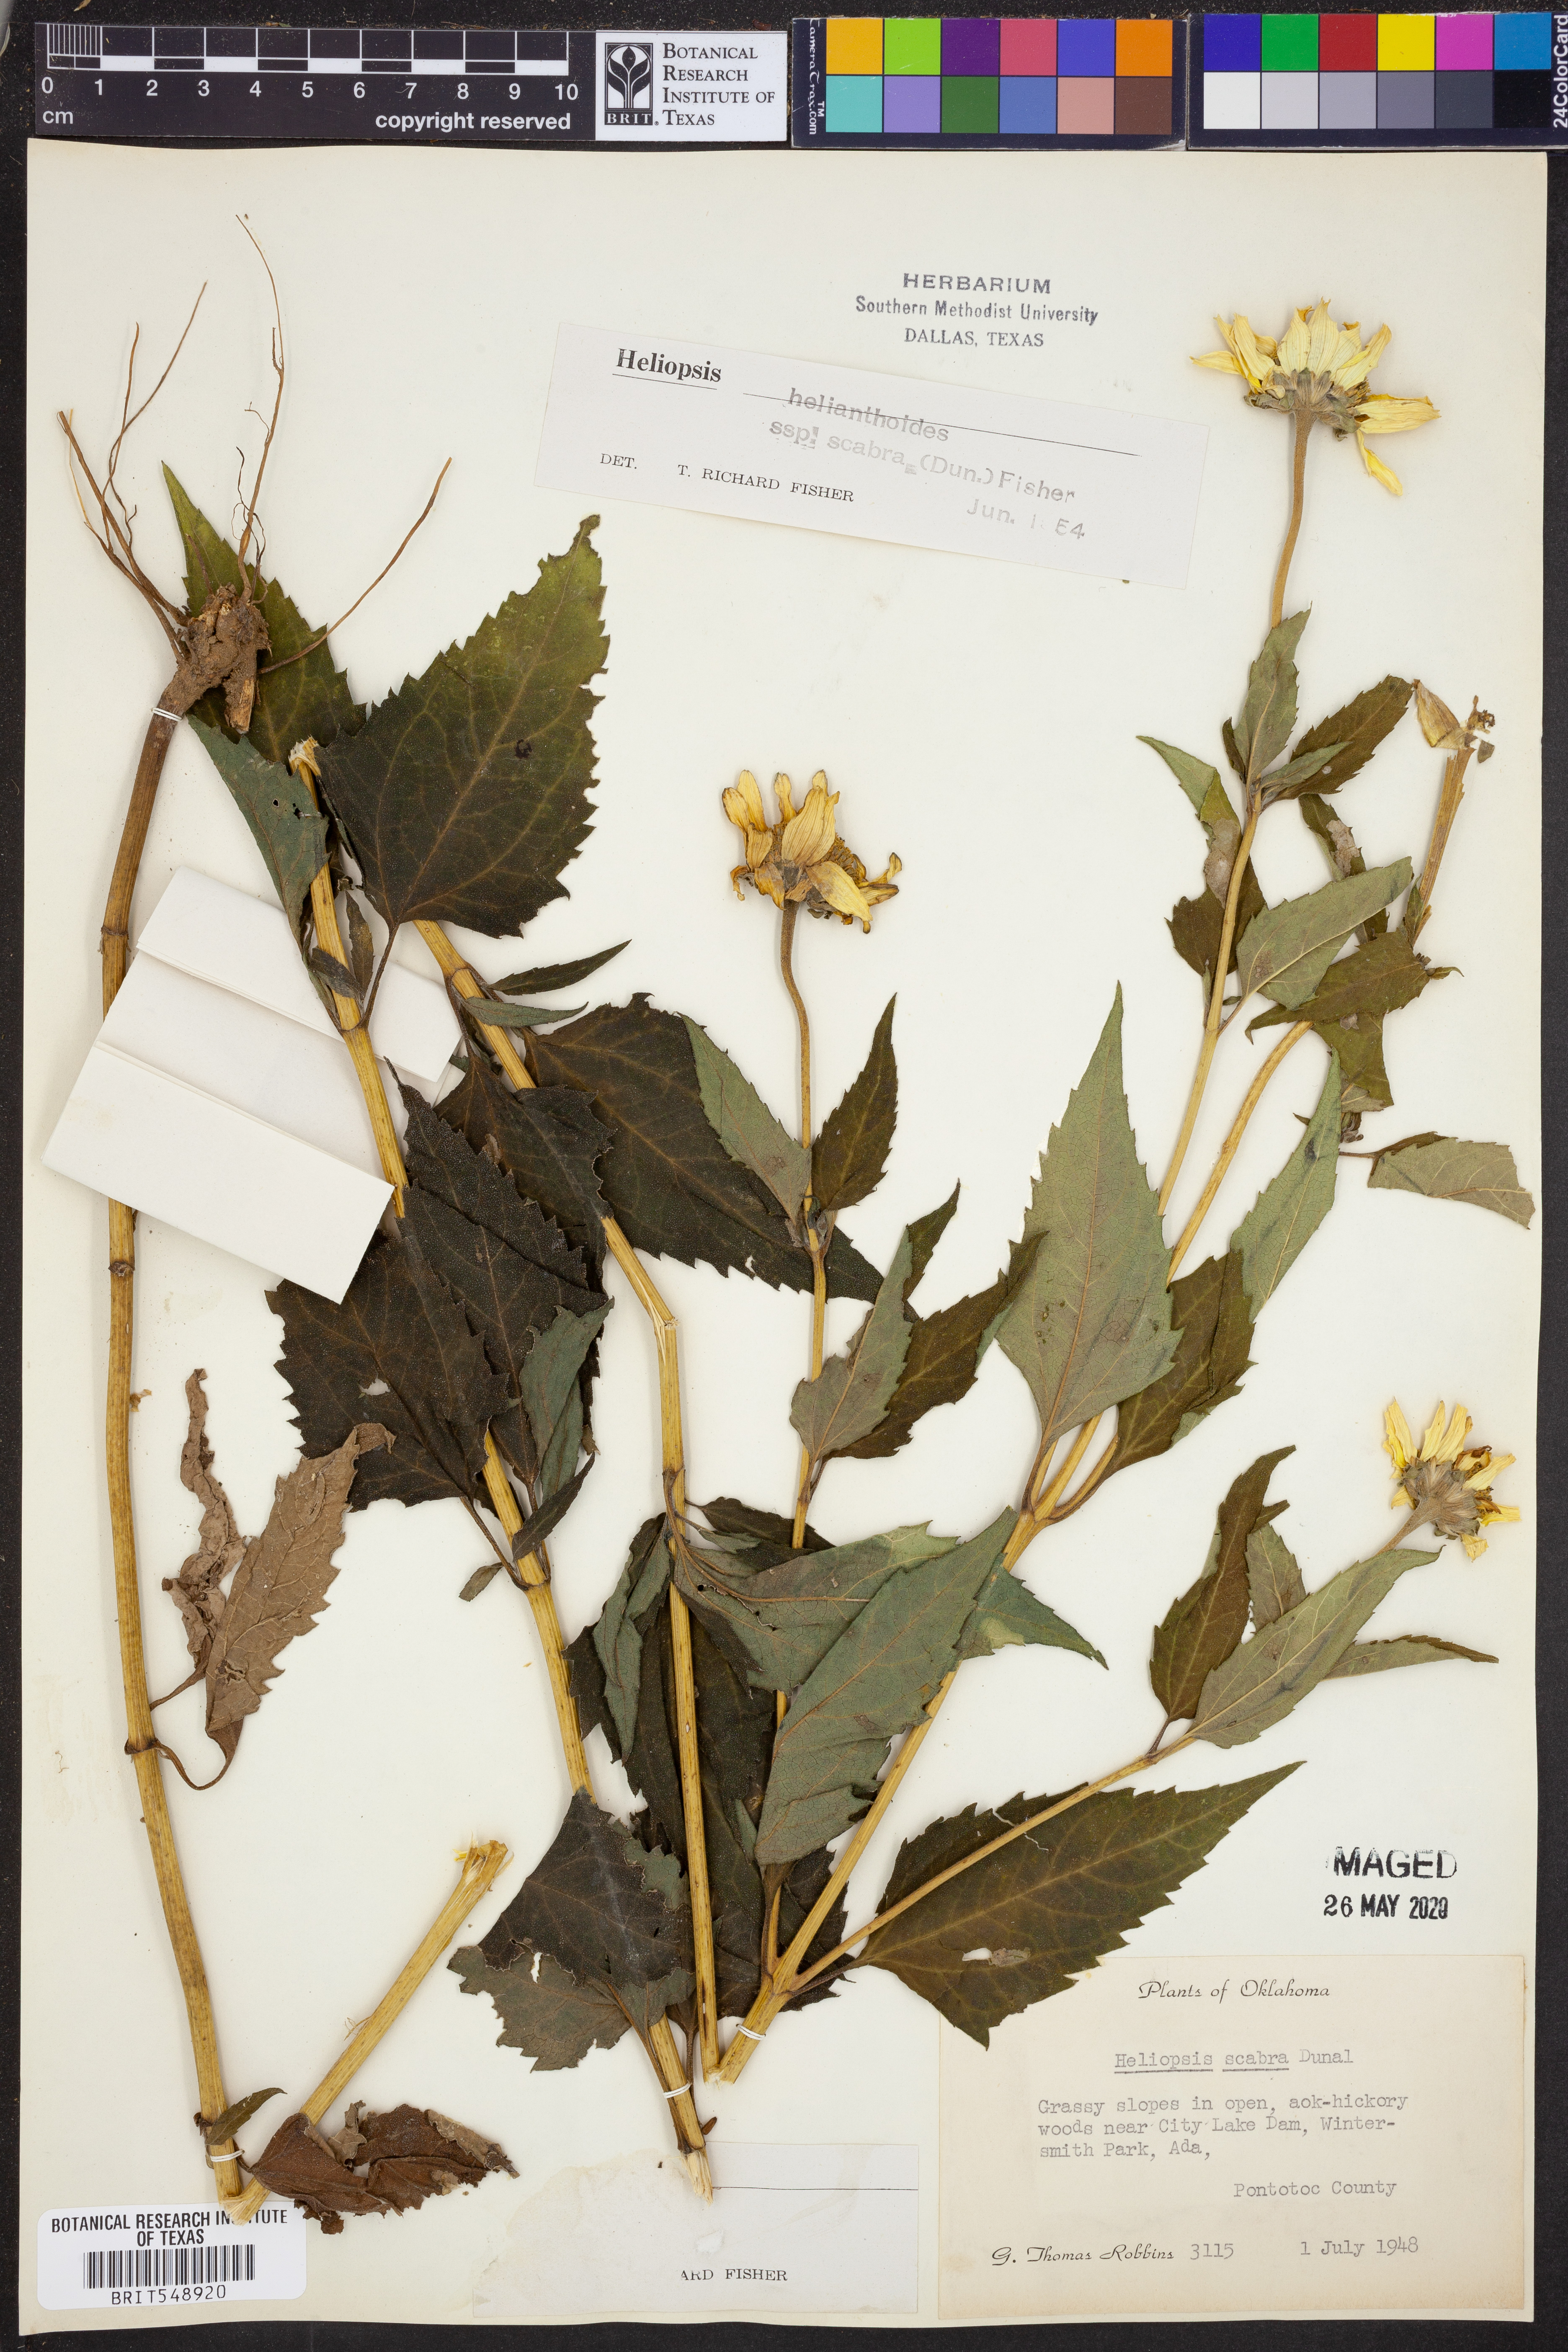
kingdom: Plantae
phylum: Tracheophyta
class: Magnoliopsida
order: Asterales
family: Asteraceae
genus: Heliopsis
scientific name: Heliopsis helianthoides
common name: False sunflower
